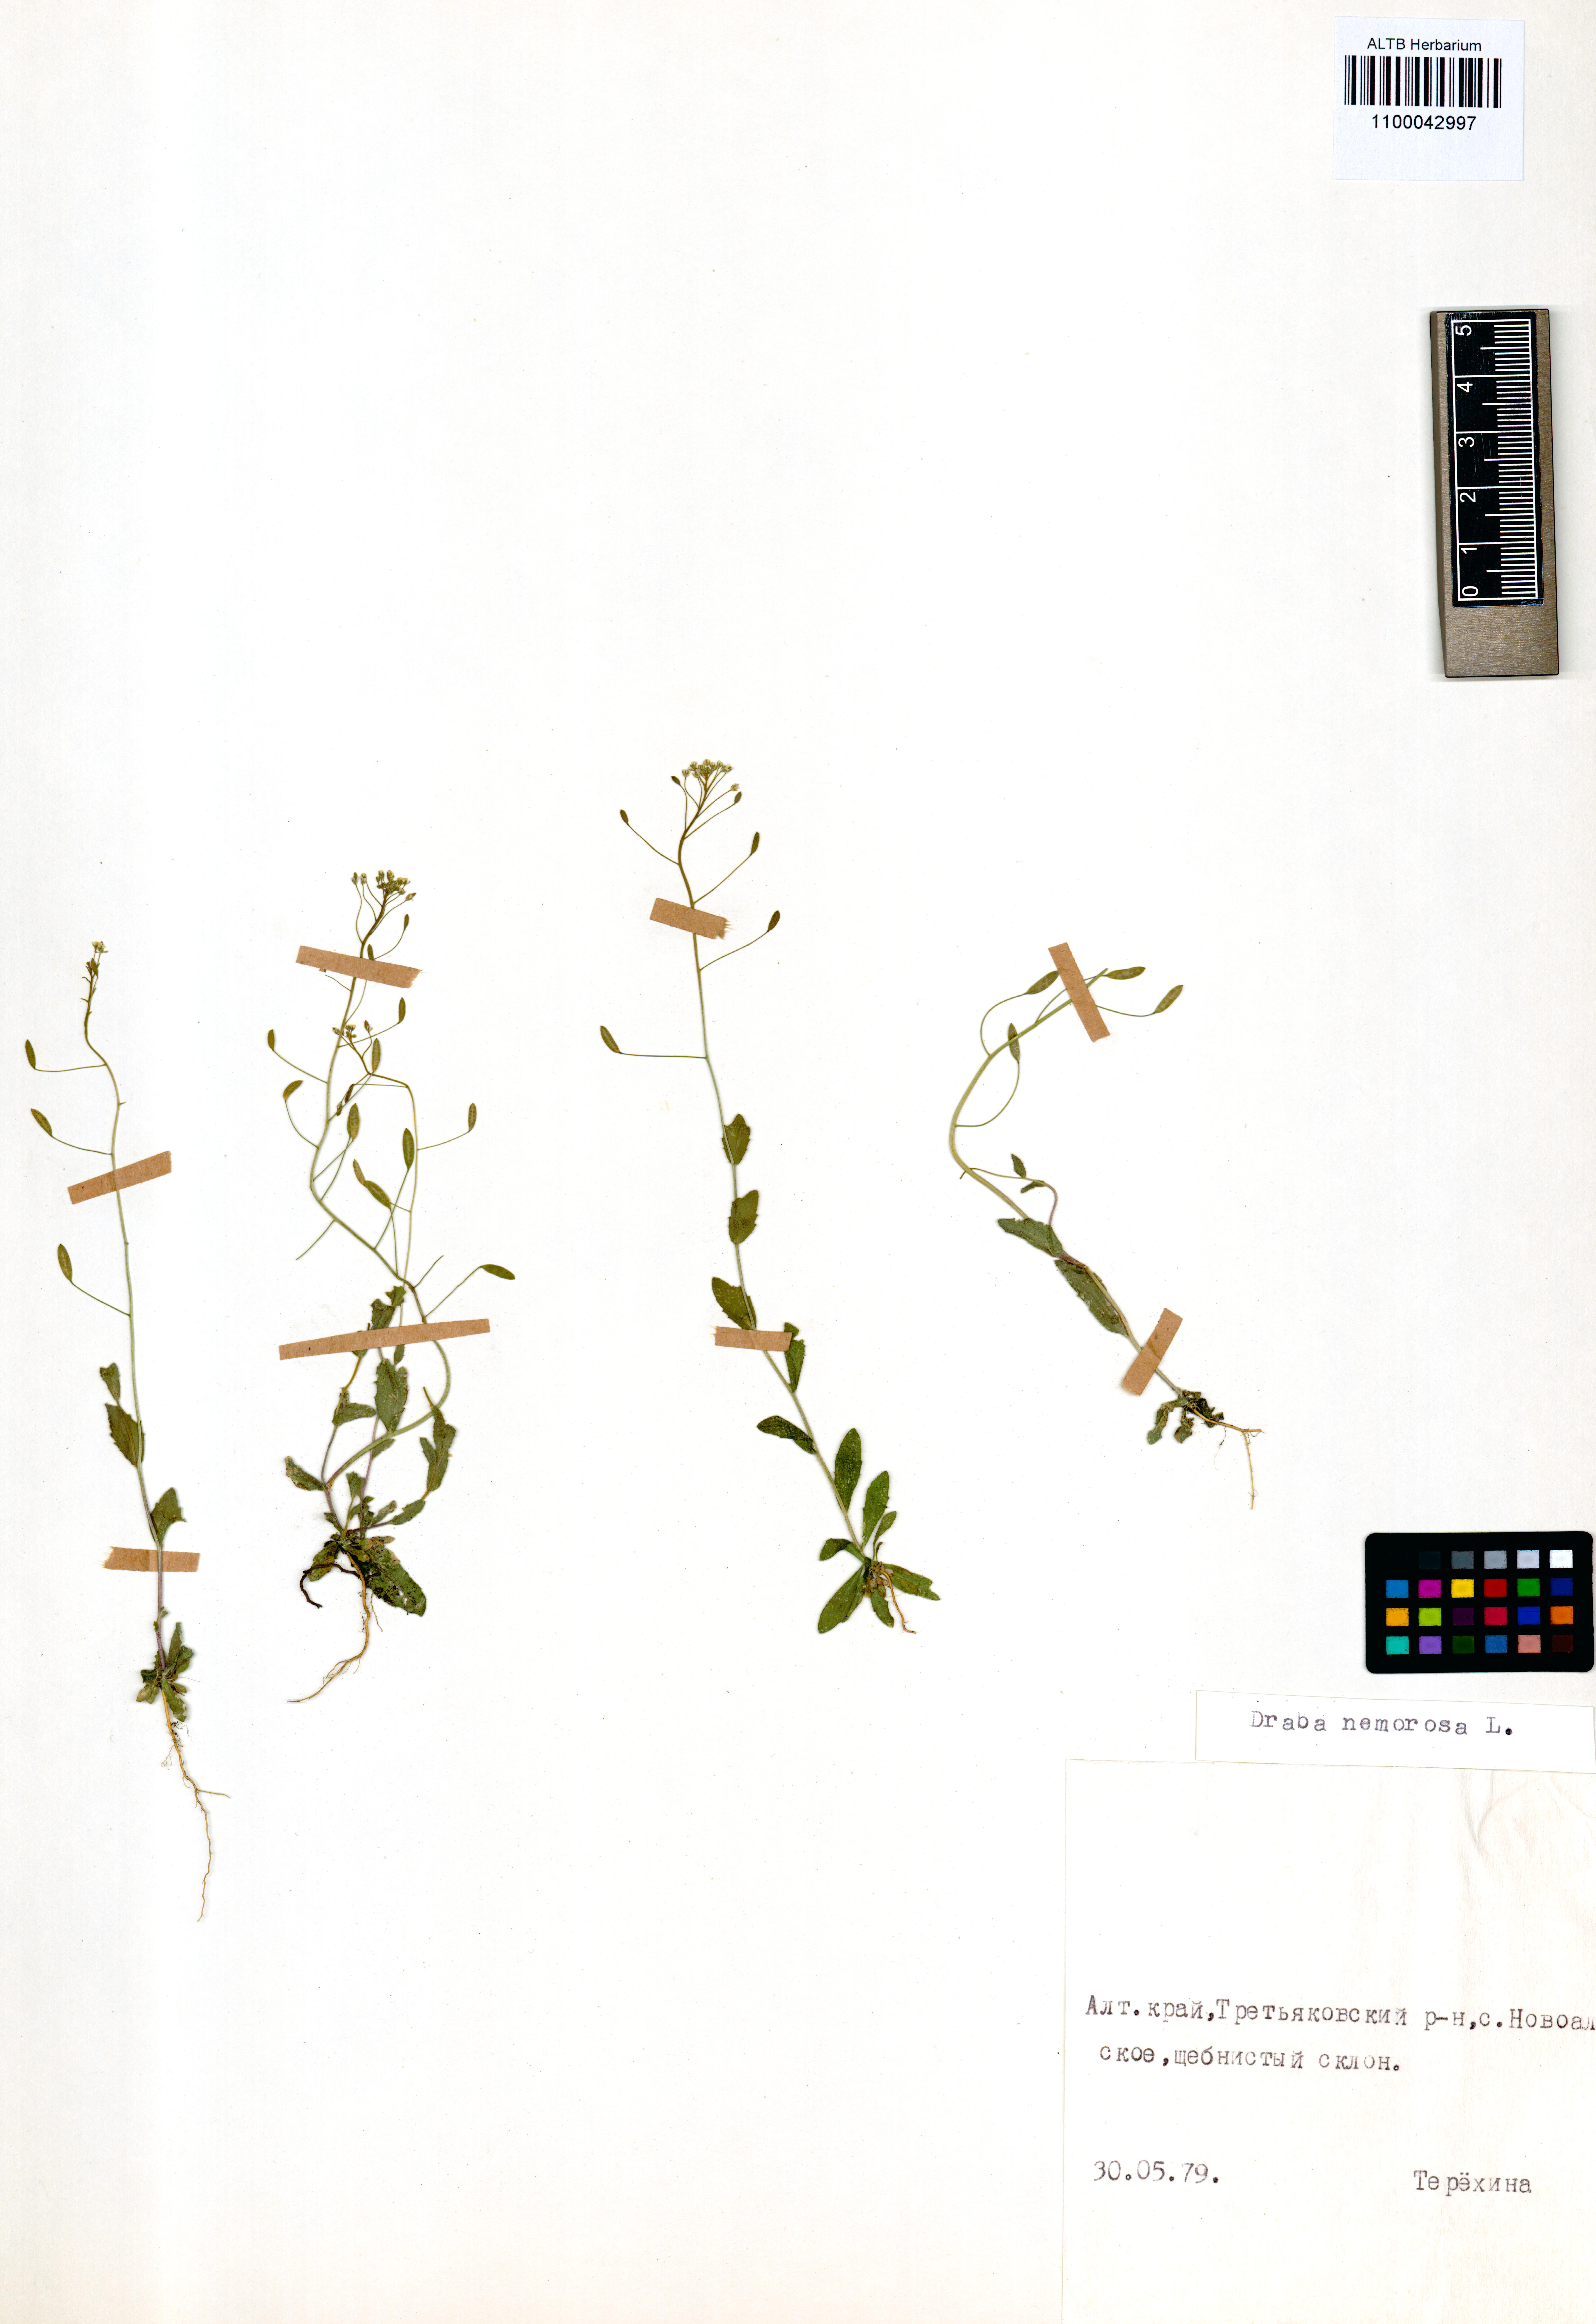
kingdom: Plantae
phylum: Tracheophyta
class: Magnoliopsida
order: Brassicales
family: Brassicaceae
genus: Draba
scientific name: Draba nemorosa
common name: Wood whitlow-grass
